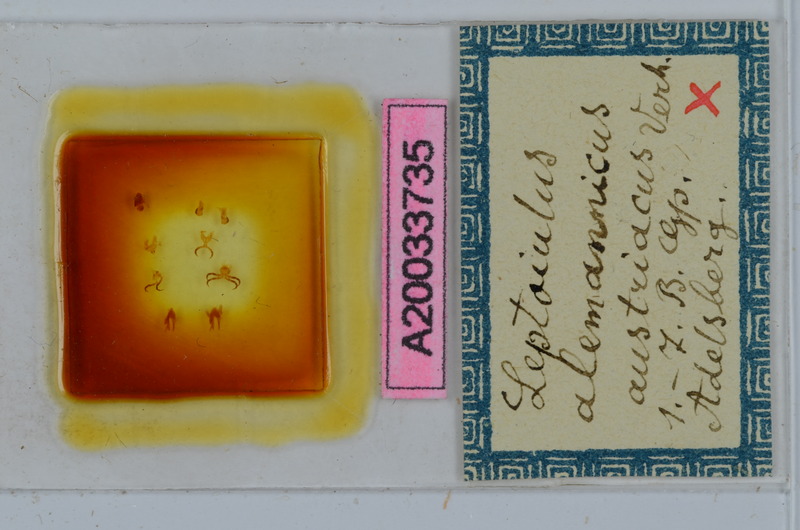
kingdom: Animalia
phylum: Arthropoda
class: Diplopoda
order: Julida
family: Julidae
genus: Leptoiulus
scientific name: Leptoiulus alemannicus
